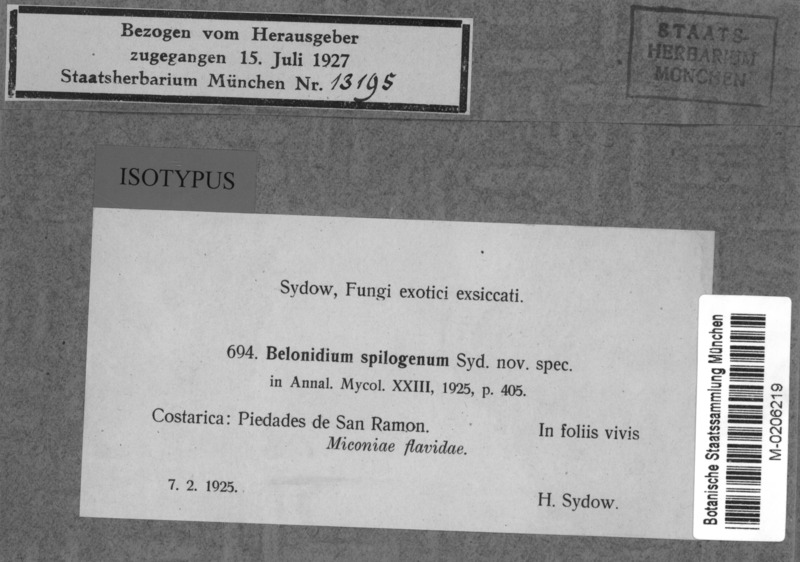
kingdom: Fungi
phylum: Ascomycota
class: Leotiomycetes
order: Helotiales
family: Lachnaceae
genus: Belonidium
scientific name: Belonidium spilogenum
